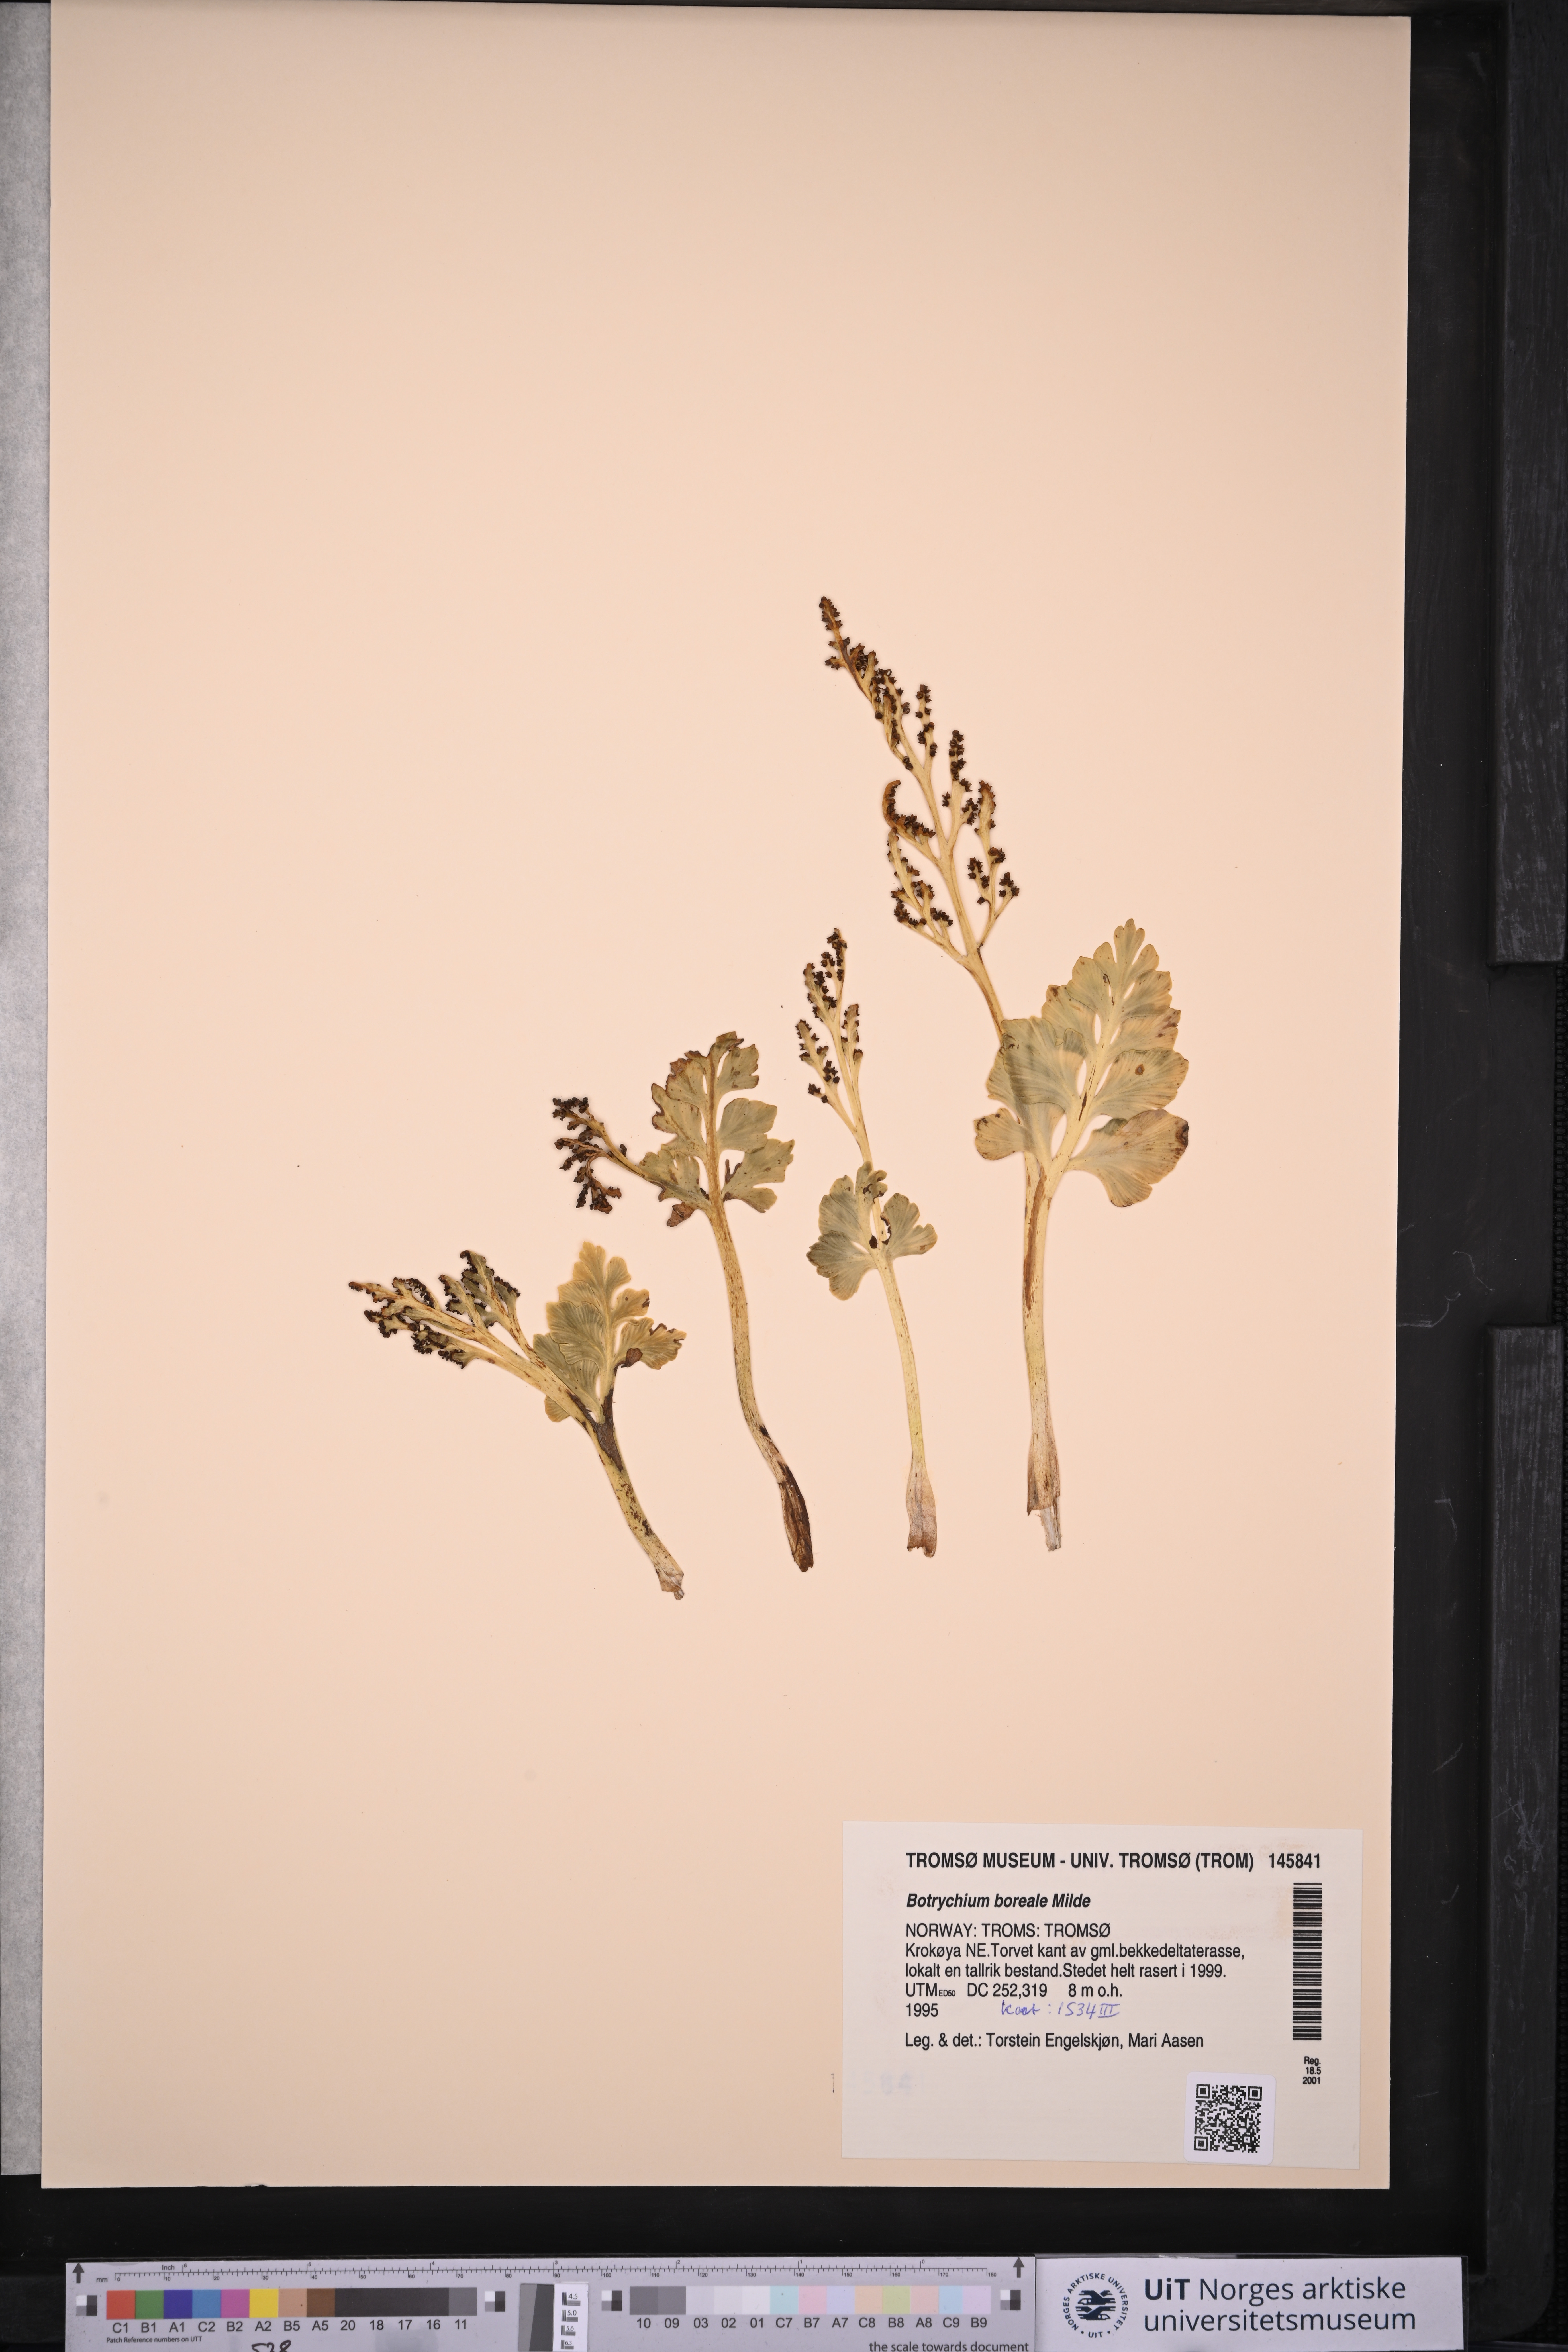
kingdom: Plantae
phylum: Tracheophyta
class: Polypodiopsida
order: Ophioglossales
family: Ophioglossaceae
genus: Botrychium
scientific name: Botrychium boreale
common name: Boreal moonwort
